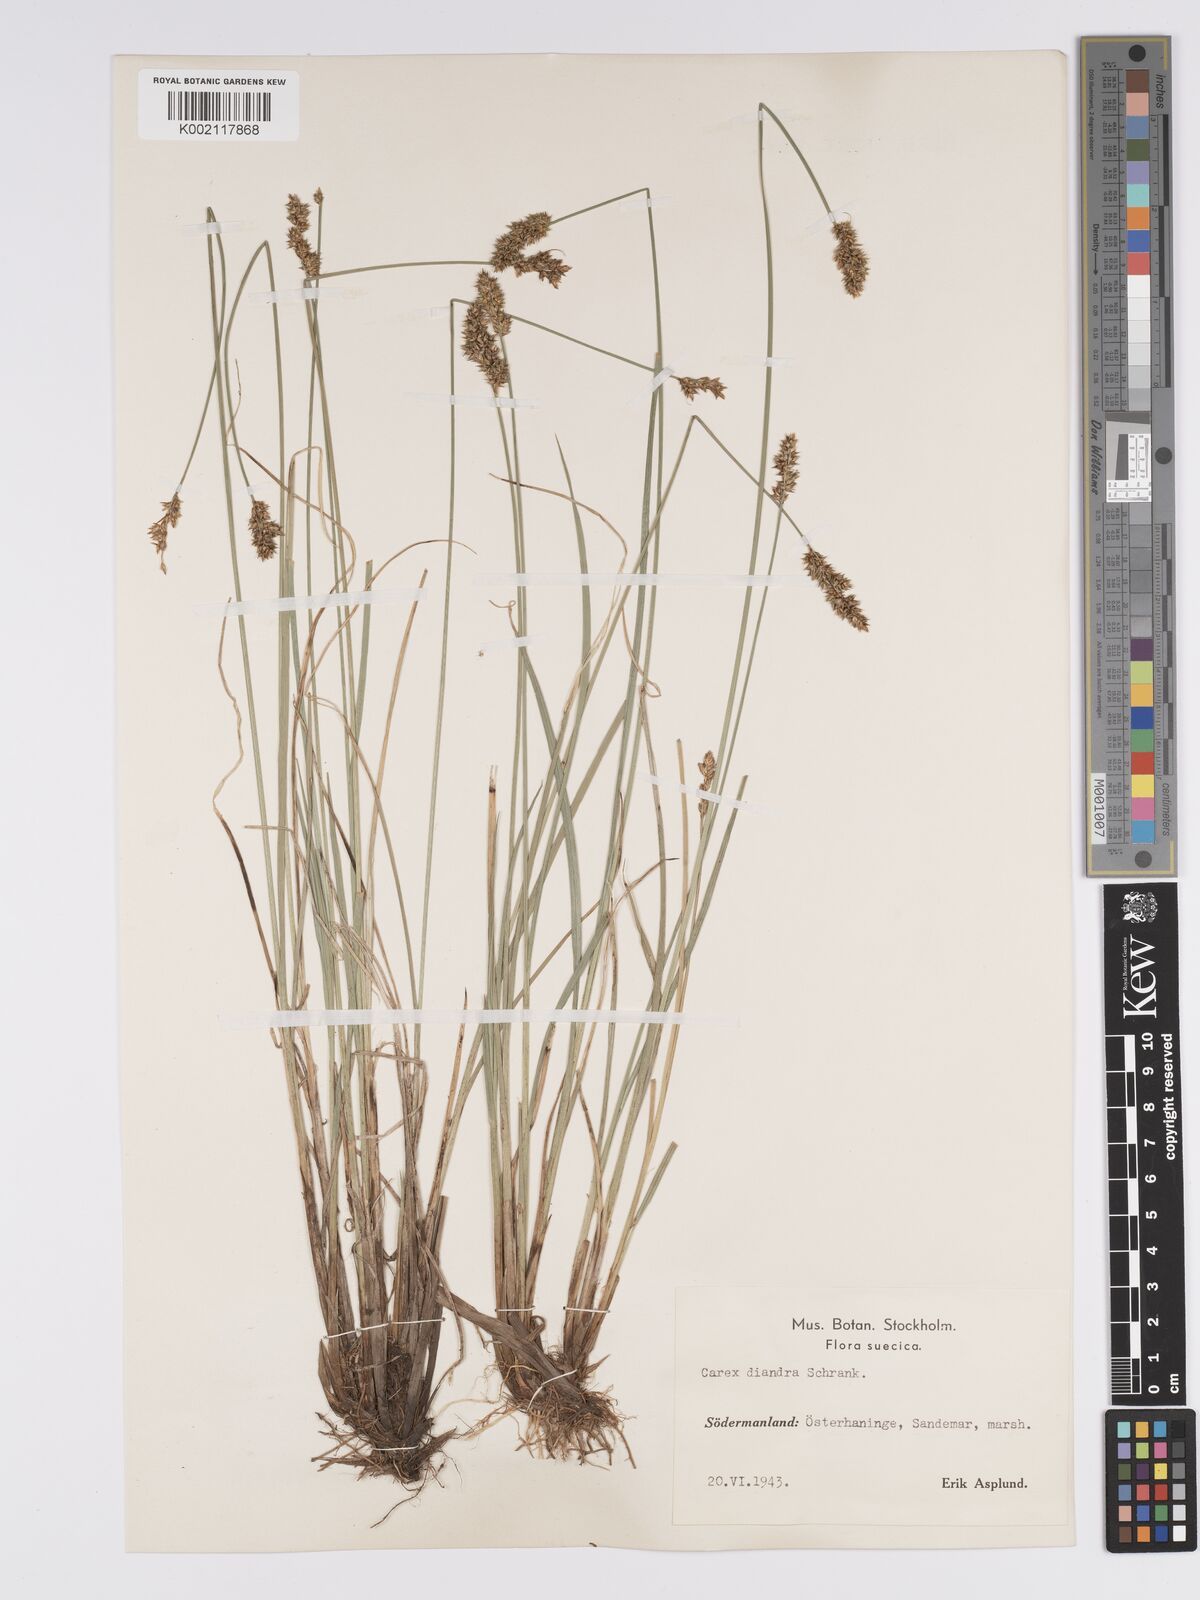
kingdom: Plantae
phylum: Tracheophyta
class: Liliopsida
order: Poales
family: Cyperaceae
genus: Carex
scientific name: Carex diandra
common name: Lesser tussock-sedge
